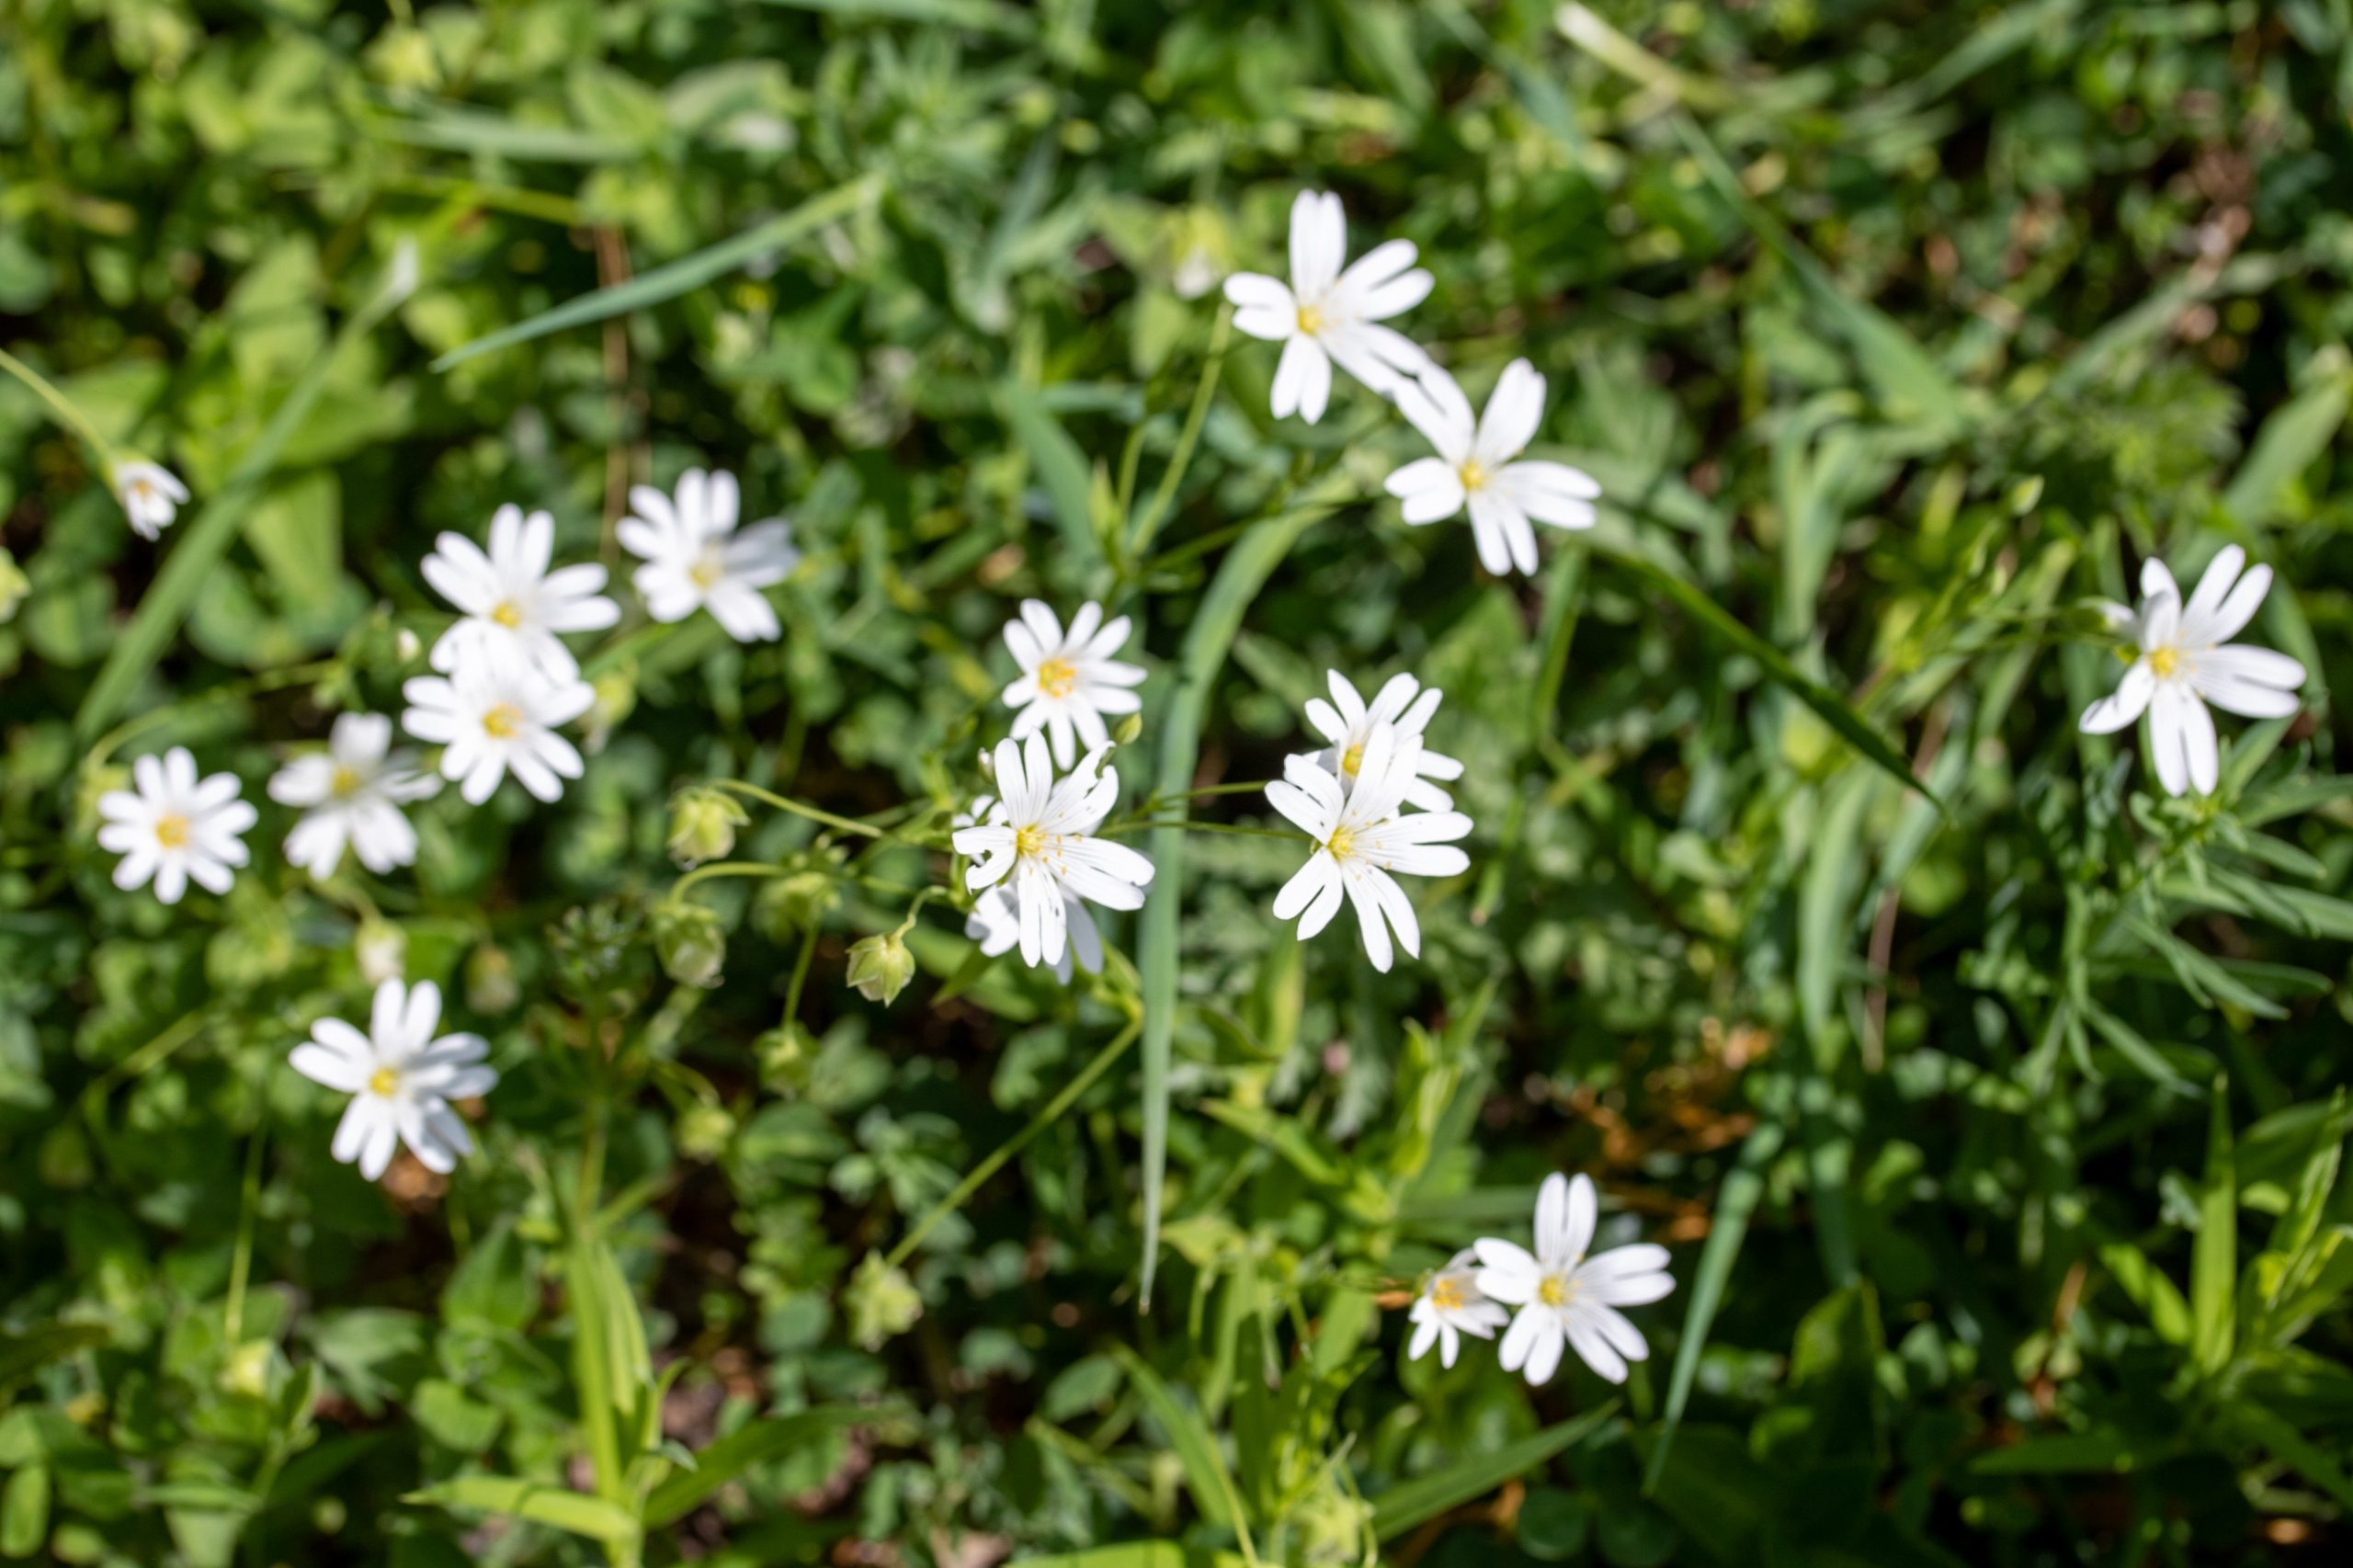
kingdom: Plantae
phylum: Tracheophyta
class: Magnoliopsida
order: Caryophyllales
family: Caryophyllaceae
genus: Rabelera
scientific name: Rabelera holostea
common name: Stor fladstjerne
